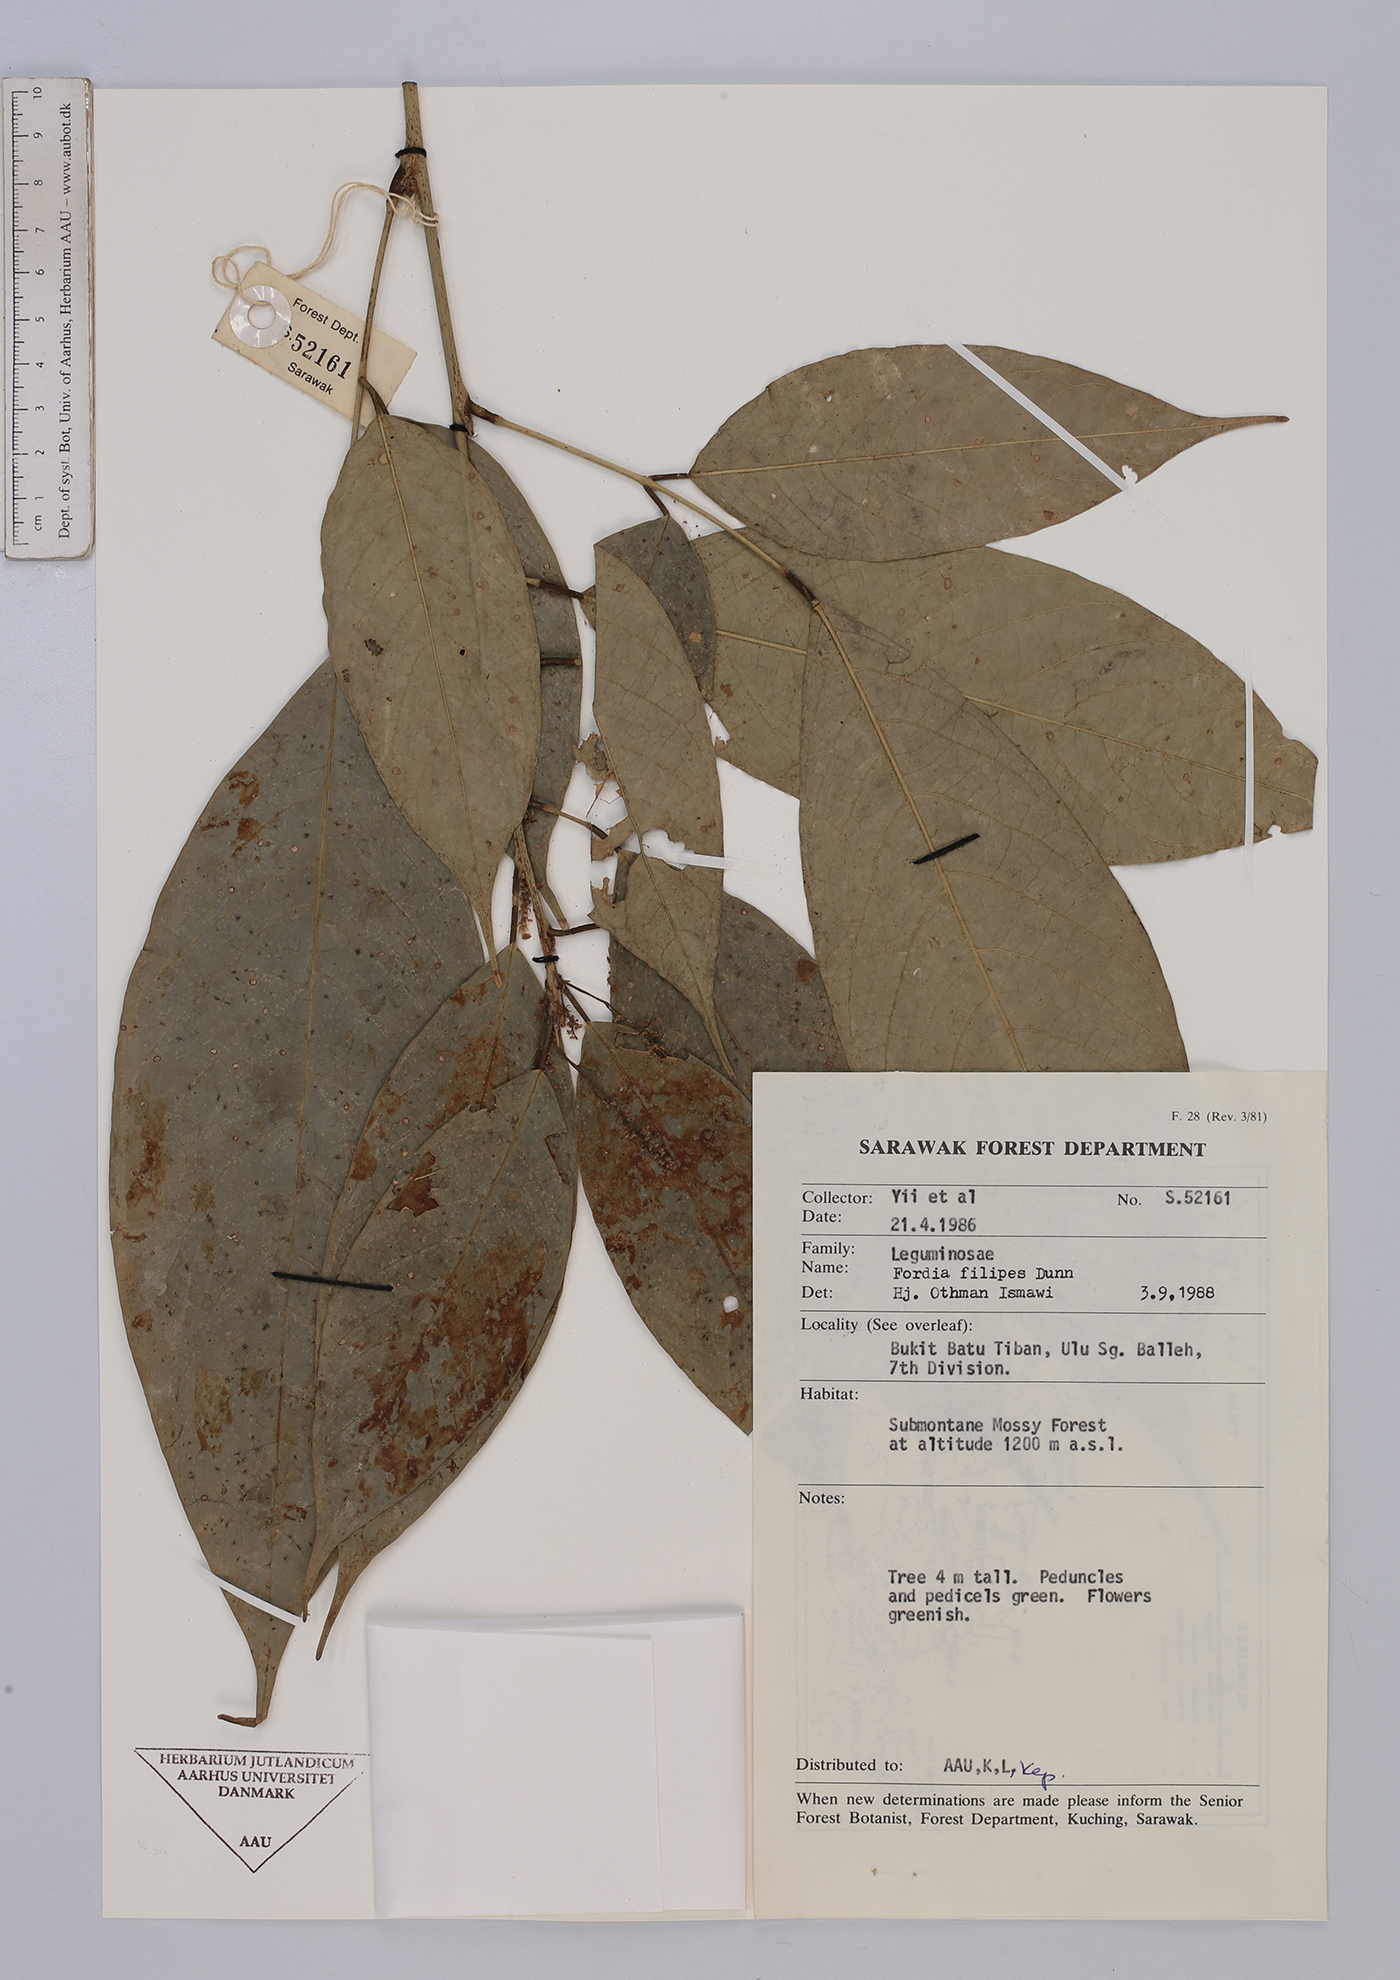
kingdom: Plantae
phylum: Tracheophyta
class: Magnoliopsida
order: Fabales
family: Fabaceae
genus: Fordia
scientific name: Fordia splendidissima
